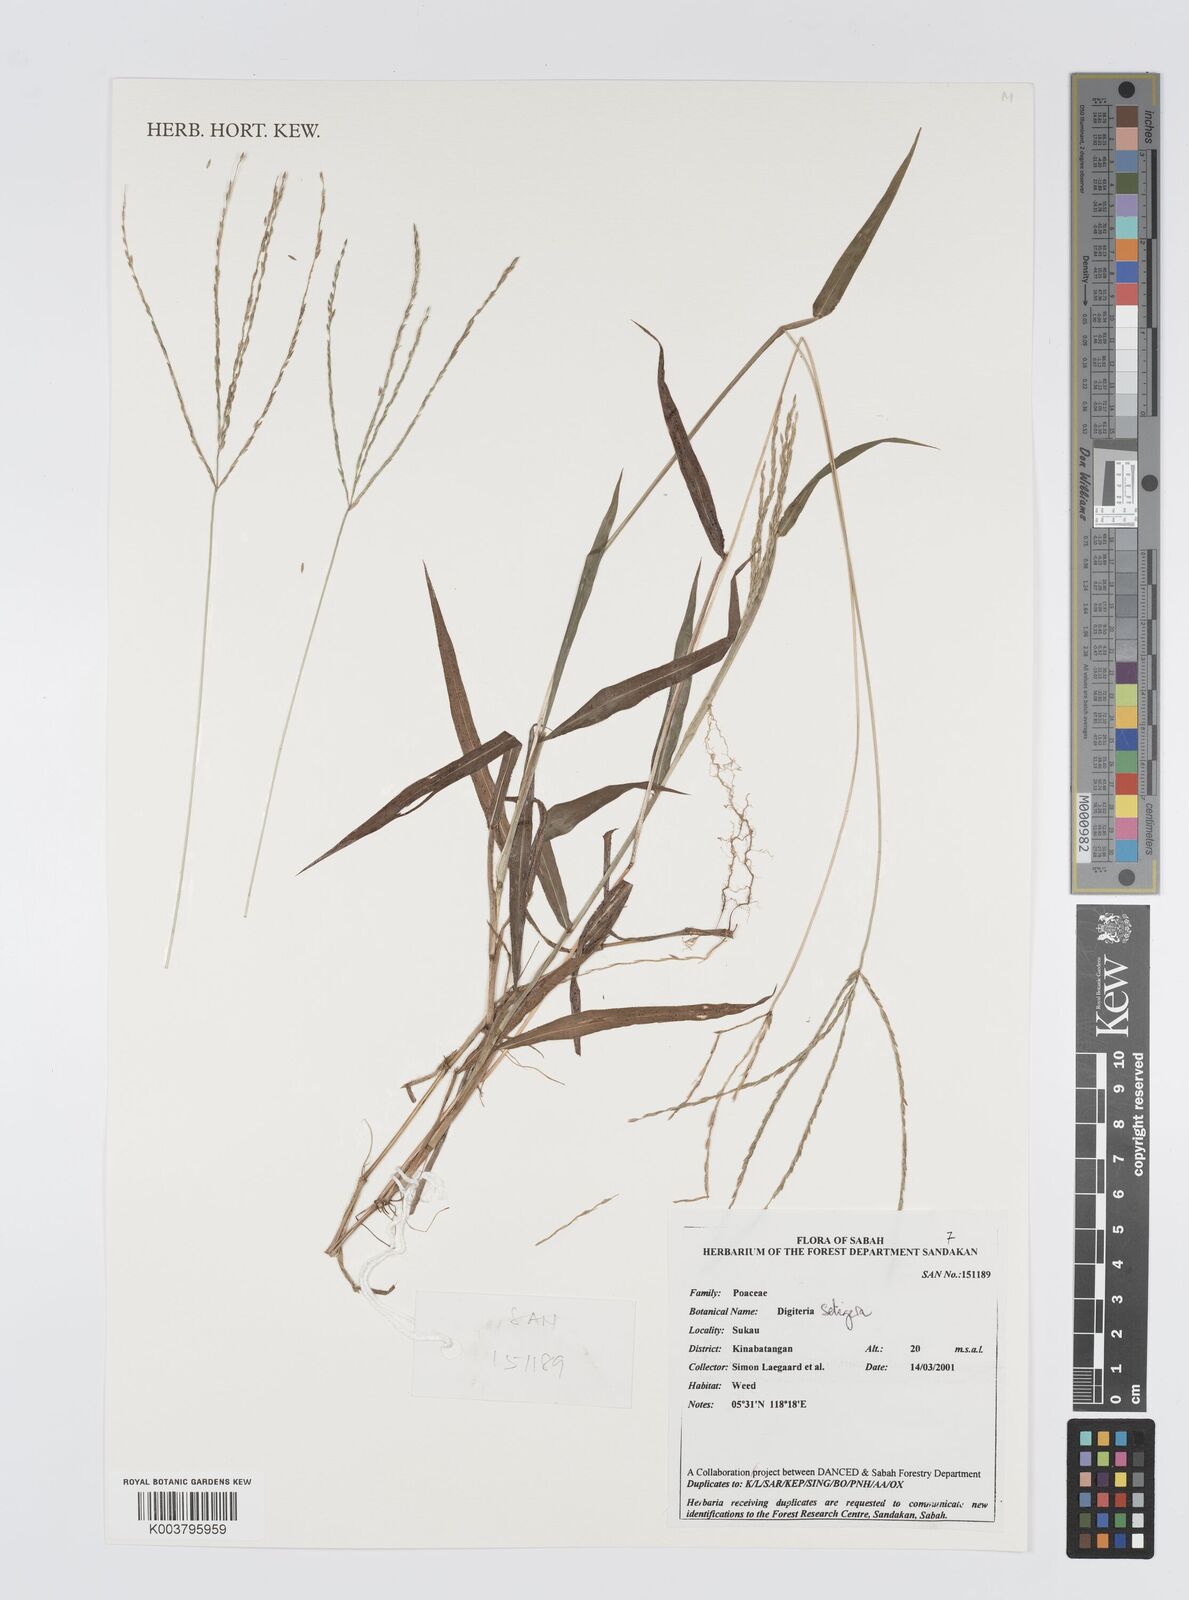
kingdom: Plantae
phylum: Tracheophyta
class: Liliopsida
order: Poales
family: Poaceae
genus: Digitaria
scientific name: Digitaria setigera
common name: East indian crabgrass
